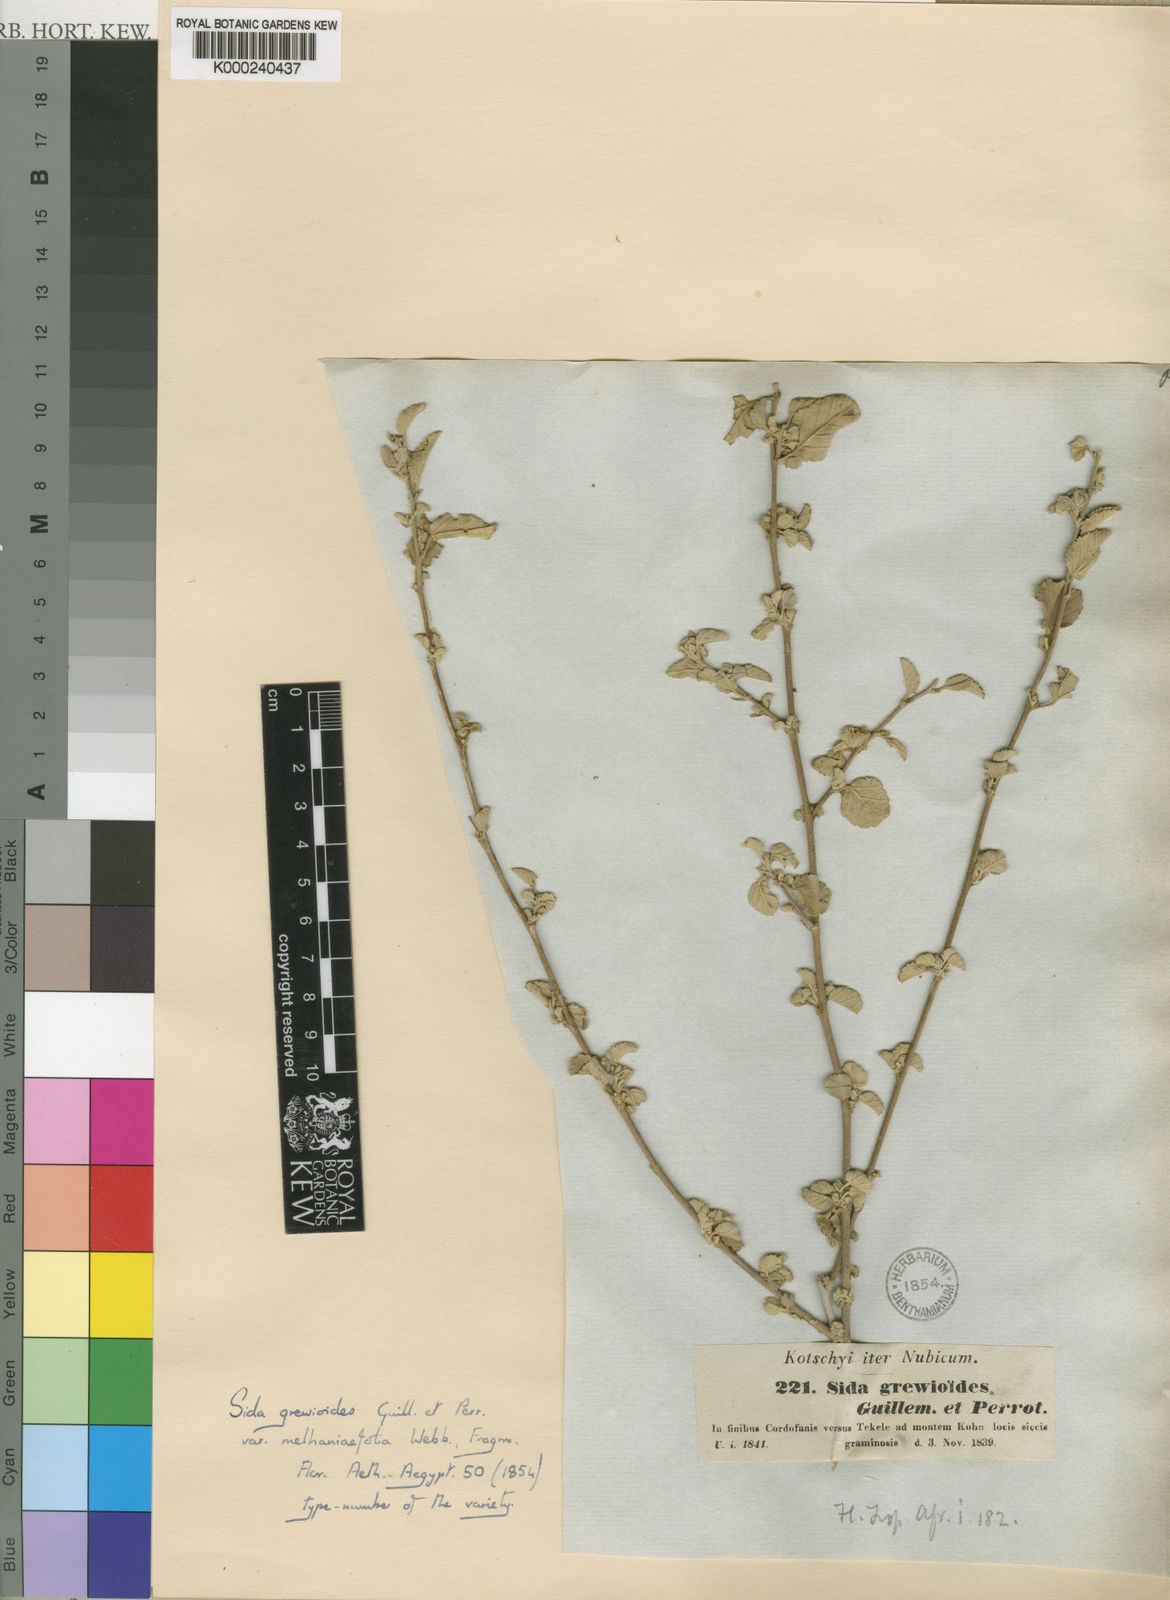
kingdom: Plantae
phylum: Tracheophyta
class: Magnoliopsida
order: Malvales
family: Malvaceae
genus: Sida
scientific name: Sida ovata
